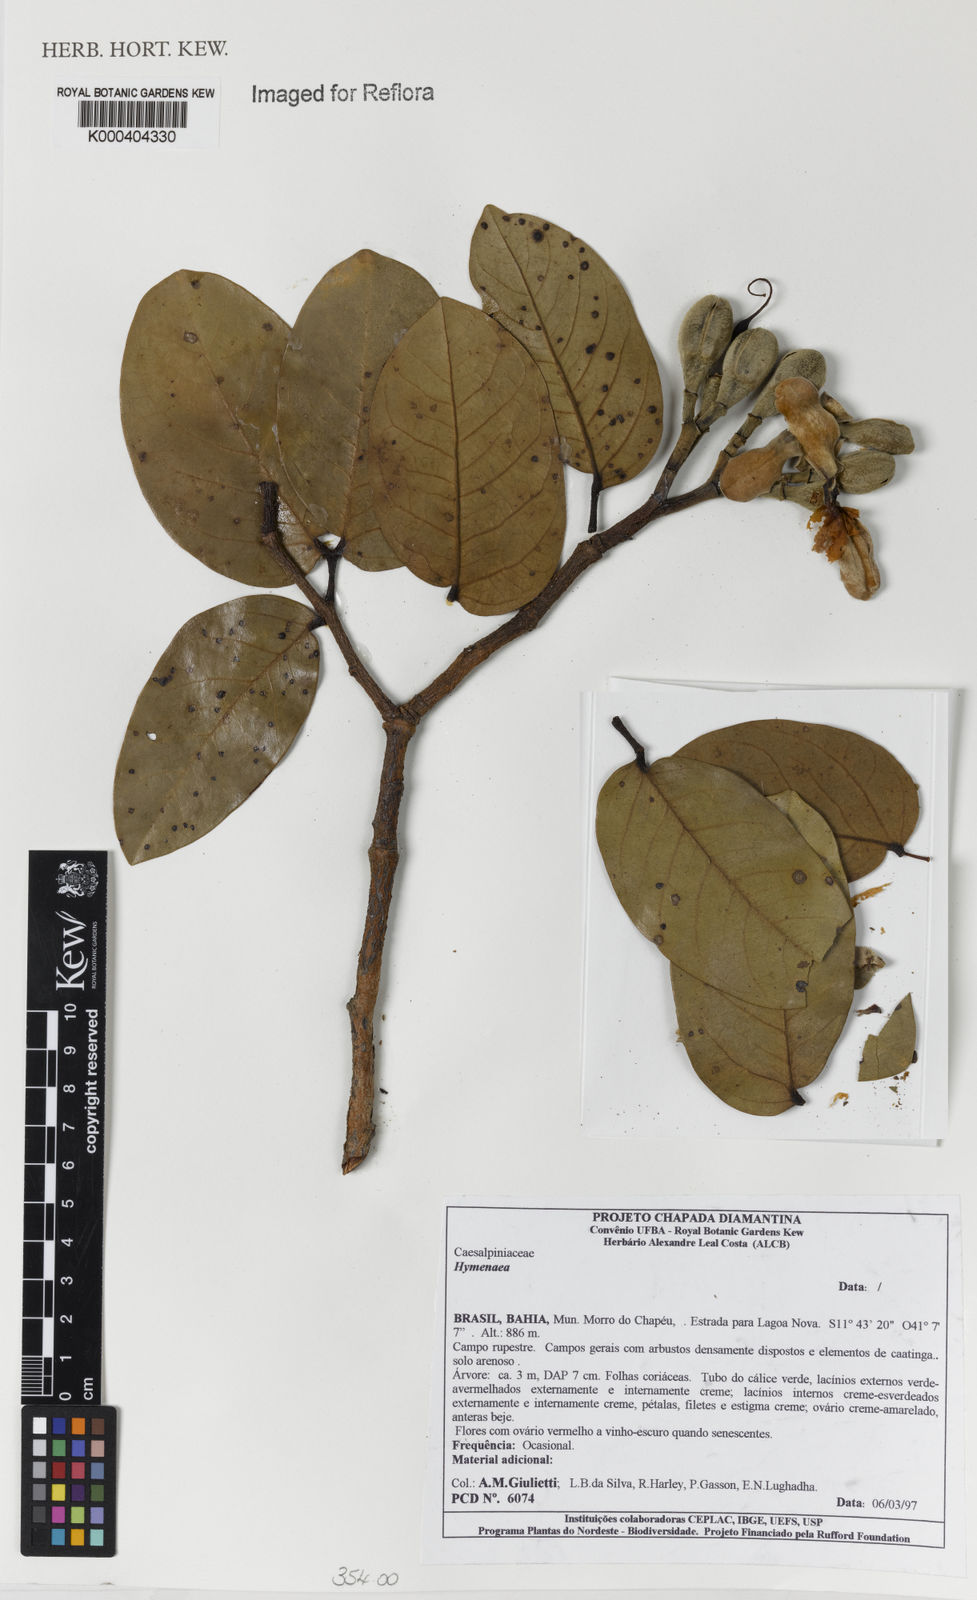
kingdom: Plantae
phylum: Tracheophyta
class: Magnoliopsida
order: Fabales
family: Fabaceae
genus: Hymenaea
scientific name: Hymenaea
